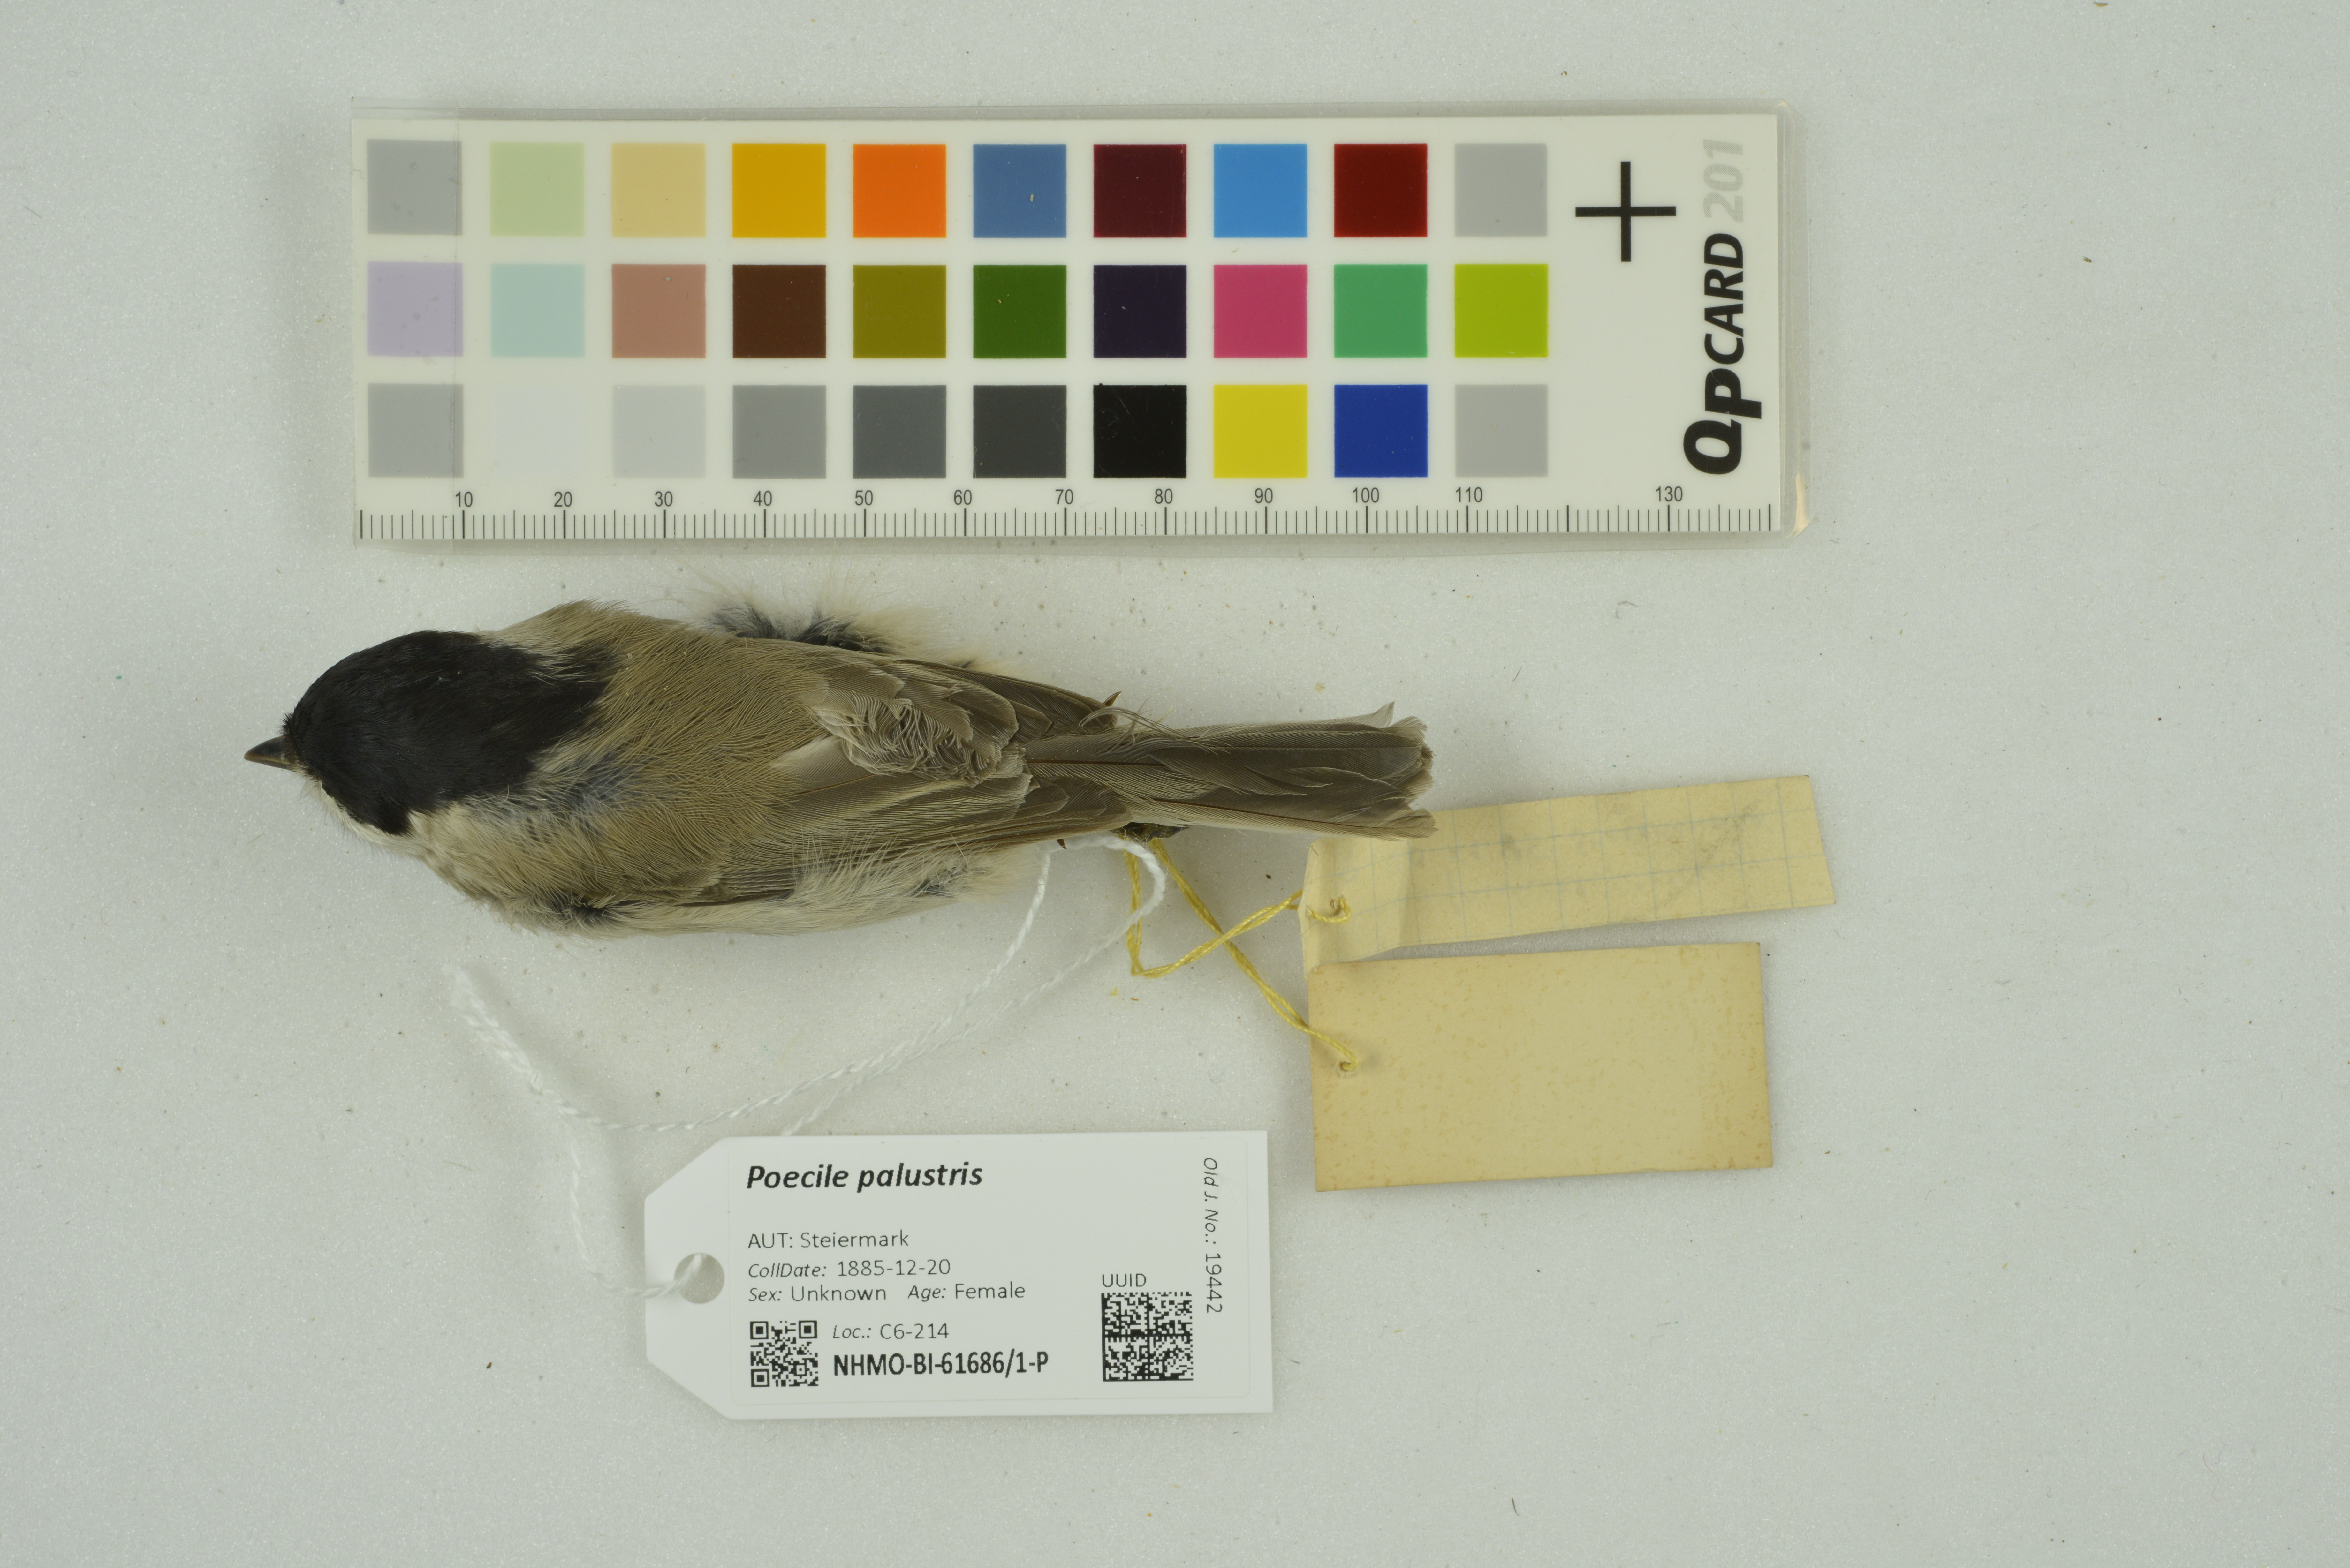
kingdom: Animalia
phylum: Chordata
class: Aves
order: Passeriformes
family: Paridae
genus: Poecile
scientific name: Poecile palustris
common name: Marsh tit
